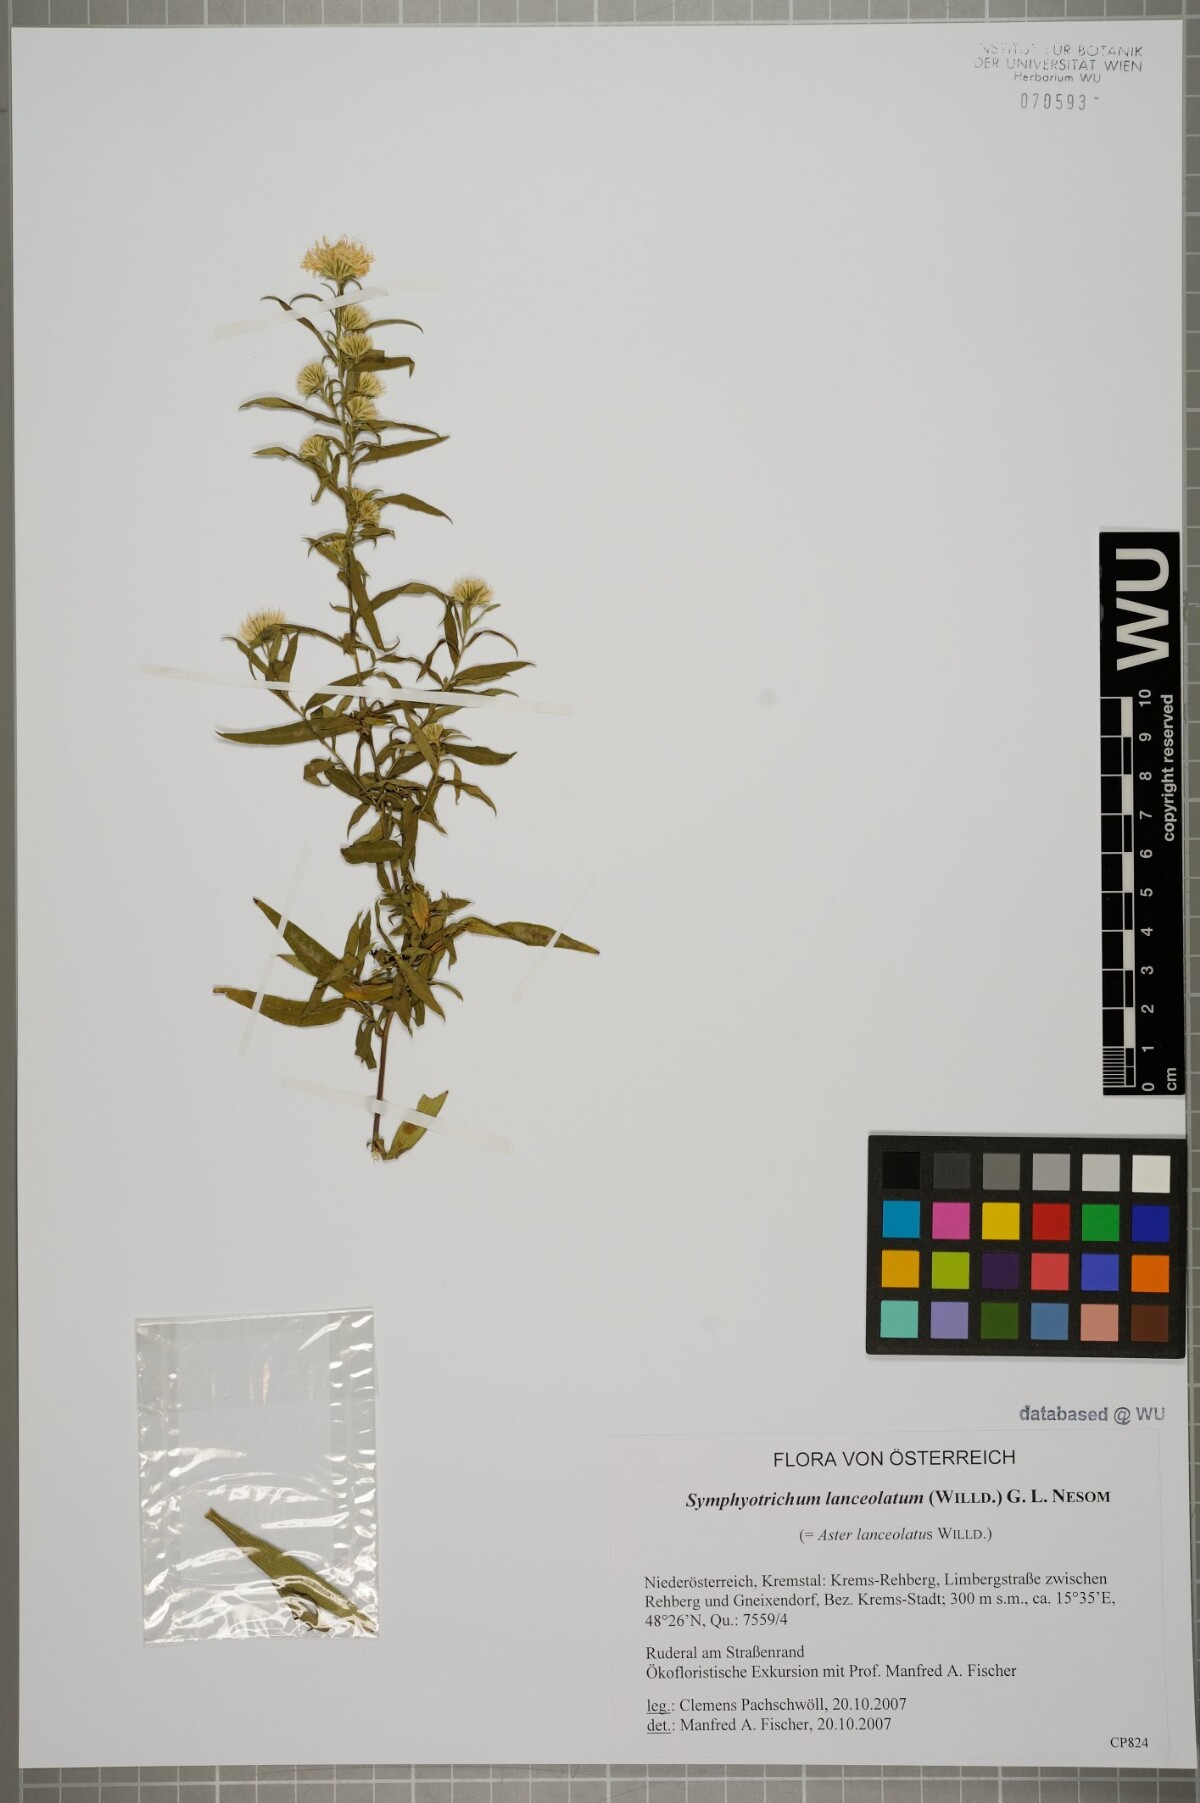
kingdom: Plantae
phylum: Tracheophyta
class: Magnoliopsida
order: Asterales
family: Asteraceae
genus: Symphyotrichum
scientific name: Symphyotrichum lanceolatum
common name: Panicled aster
